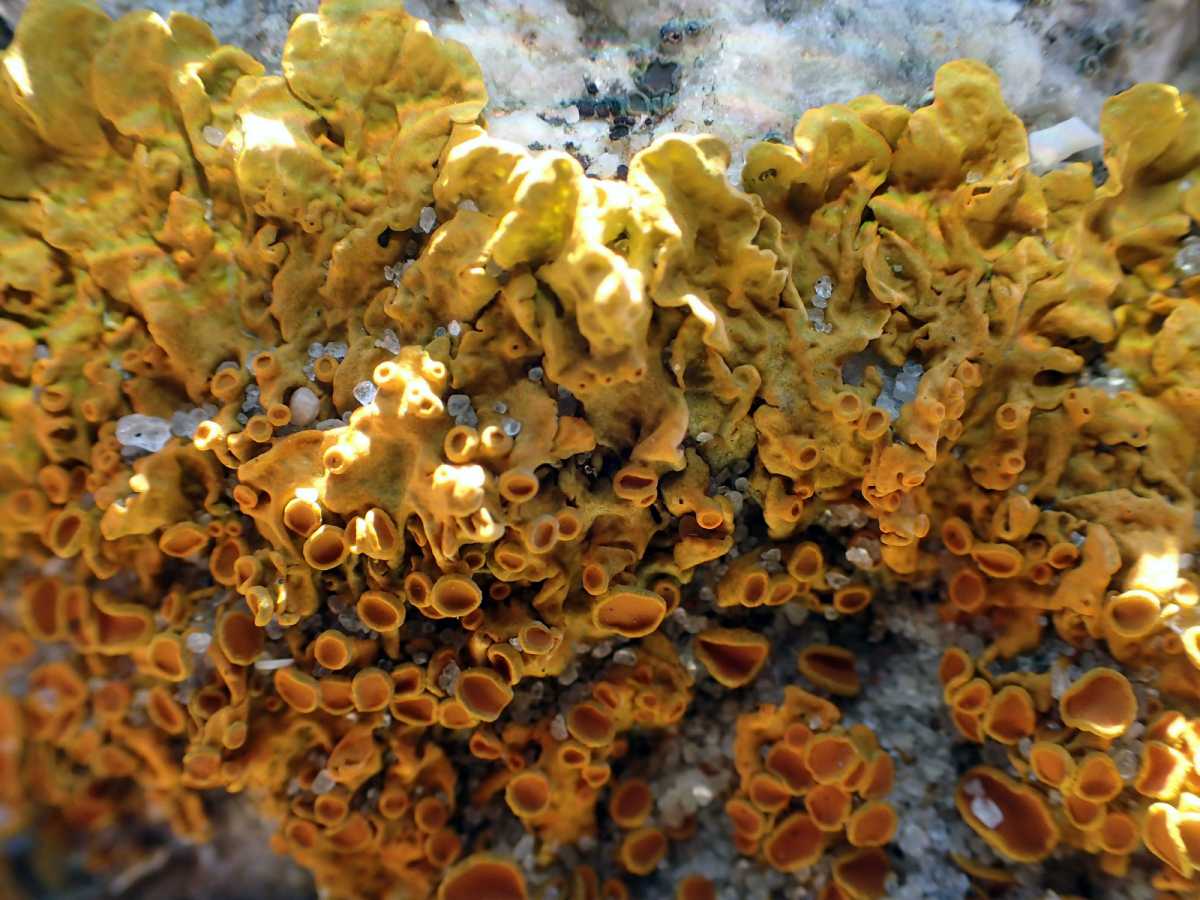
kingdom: Fungi
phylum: Ascomycota
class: Lecanoromycetes
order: Teloschistales
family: Teloschistaceae
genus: Xanthoria
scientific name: Xanthoria parietina
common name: almindelig væggelav
